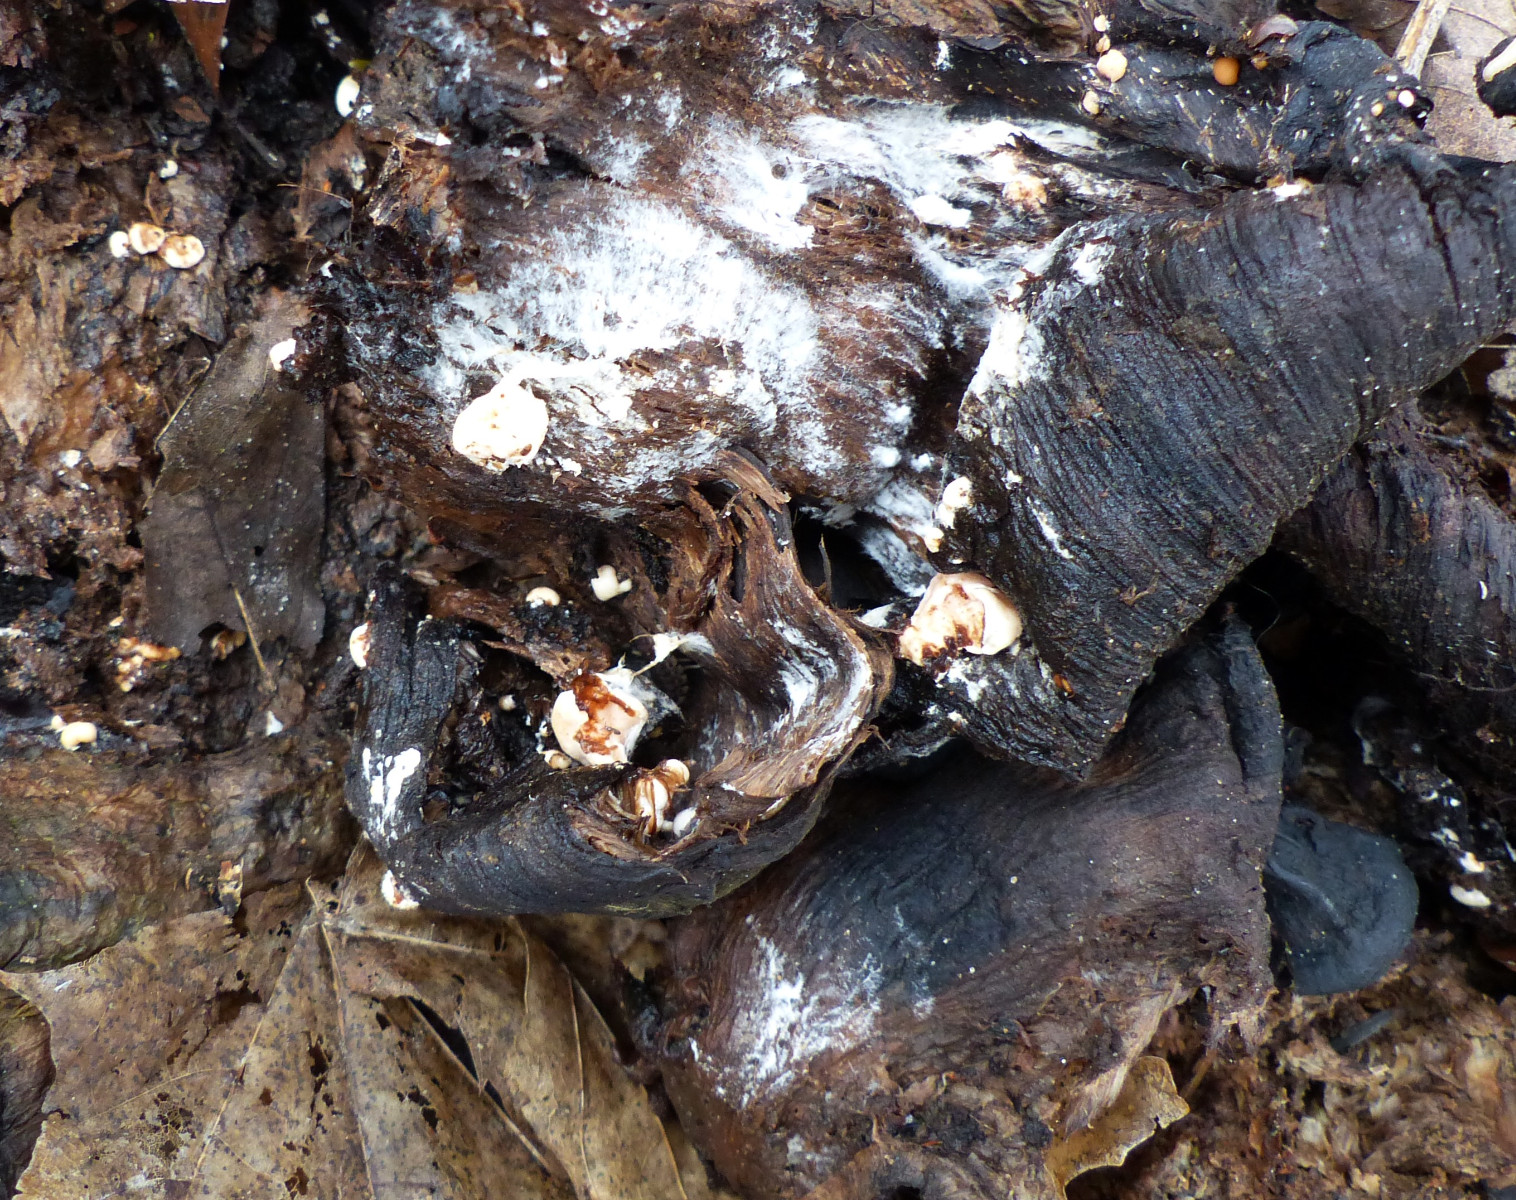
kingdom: Fungi
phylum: Basidiomycota
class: Agaricomycetes
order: Agaricales
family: Tricholomataceae
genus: Collybia
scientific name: Collybia cookei
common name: gulknoldet lighat
